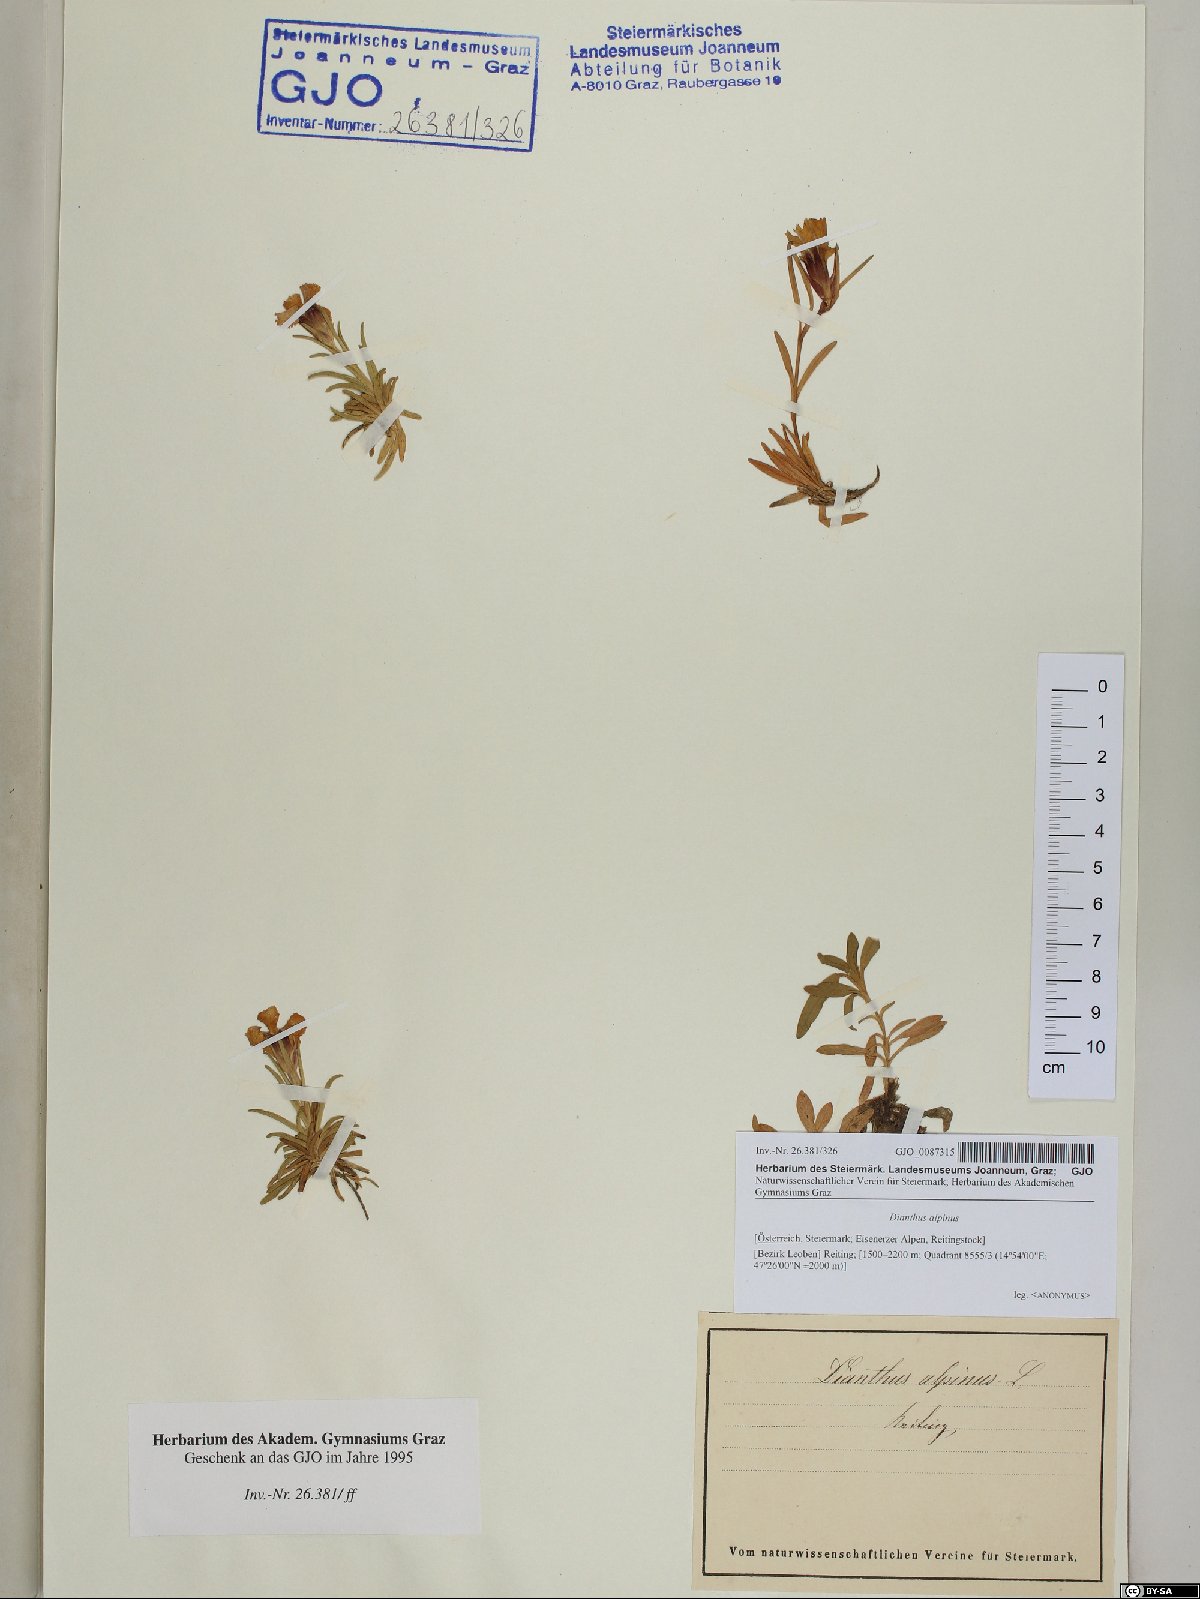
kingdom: Plantae
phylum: Tracheophyta
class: Magnoliopsida
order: Caryophyllales
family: Caryophyllaceae
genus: Dianthus
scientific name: Dianthus alpinus
